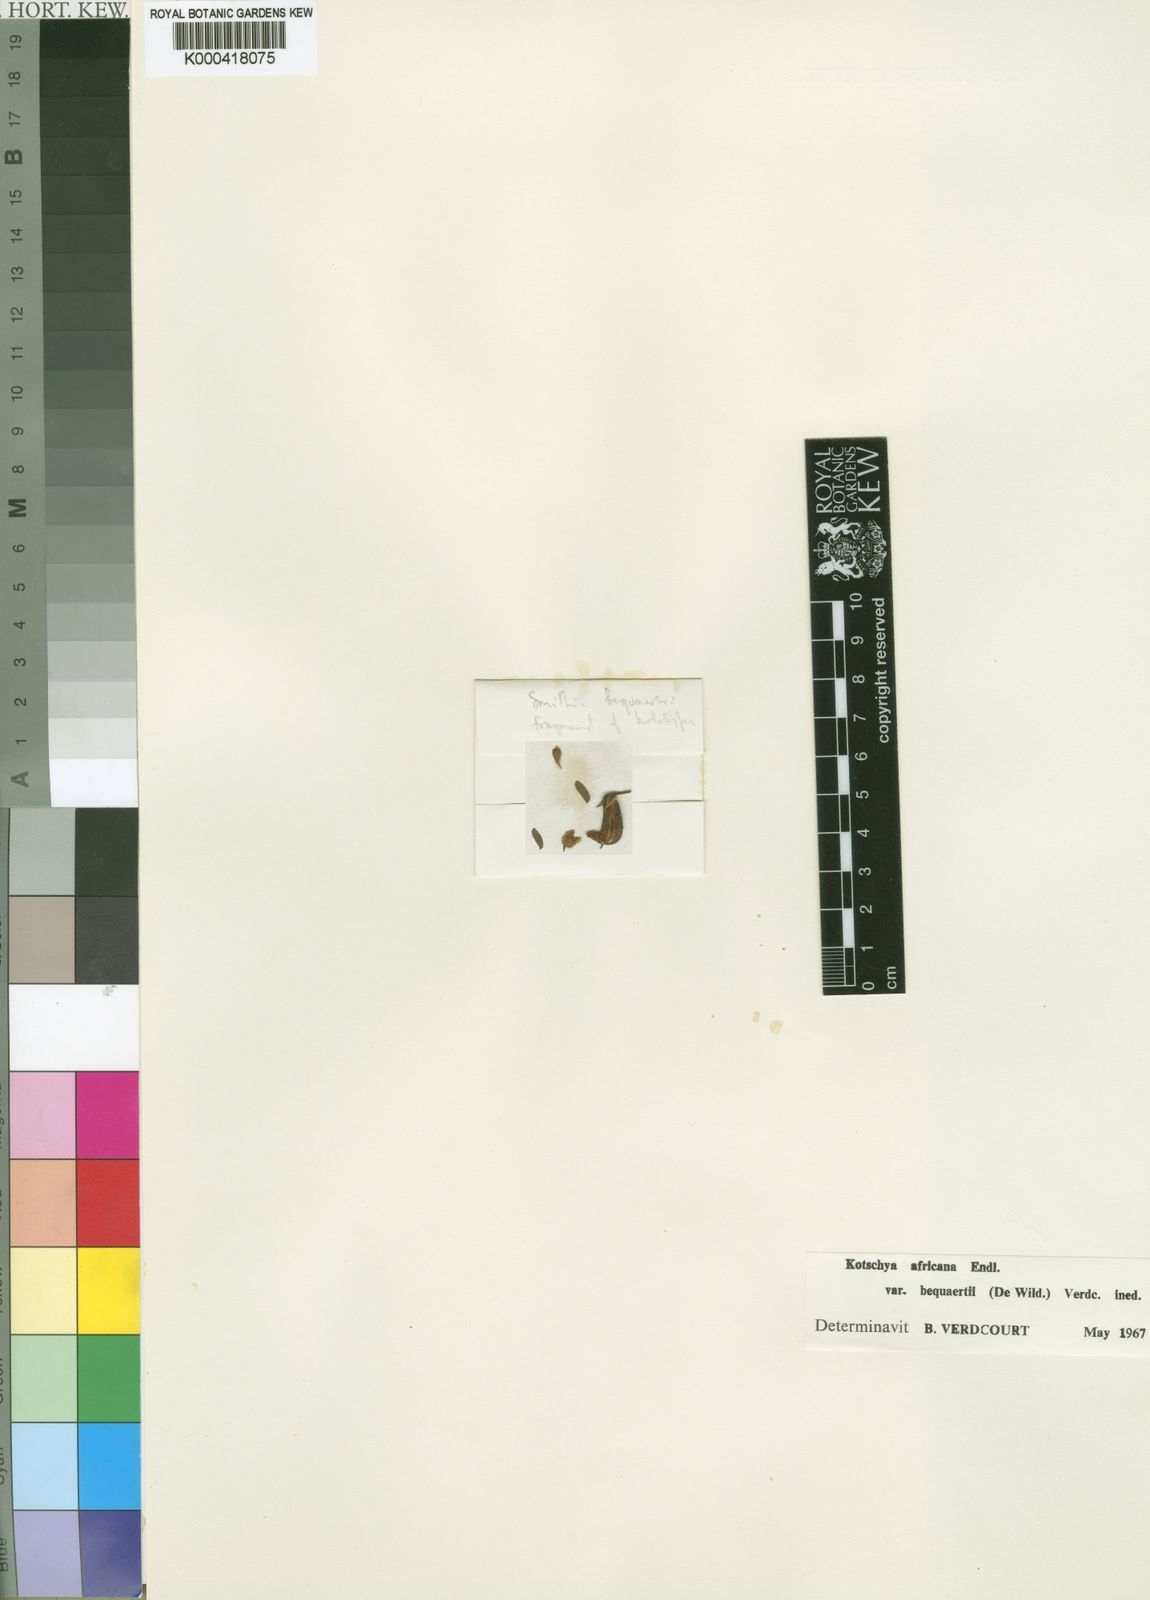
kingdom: Plantae
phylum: Tracheophyta
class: Magnoliopsida
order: Fabales
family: Fabaceae
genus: Kotschya
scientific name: Kotschya africana
